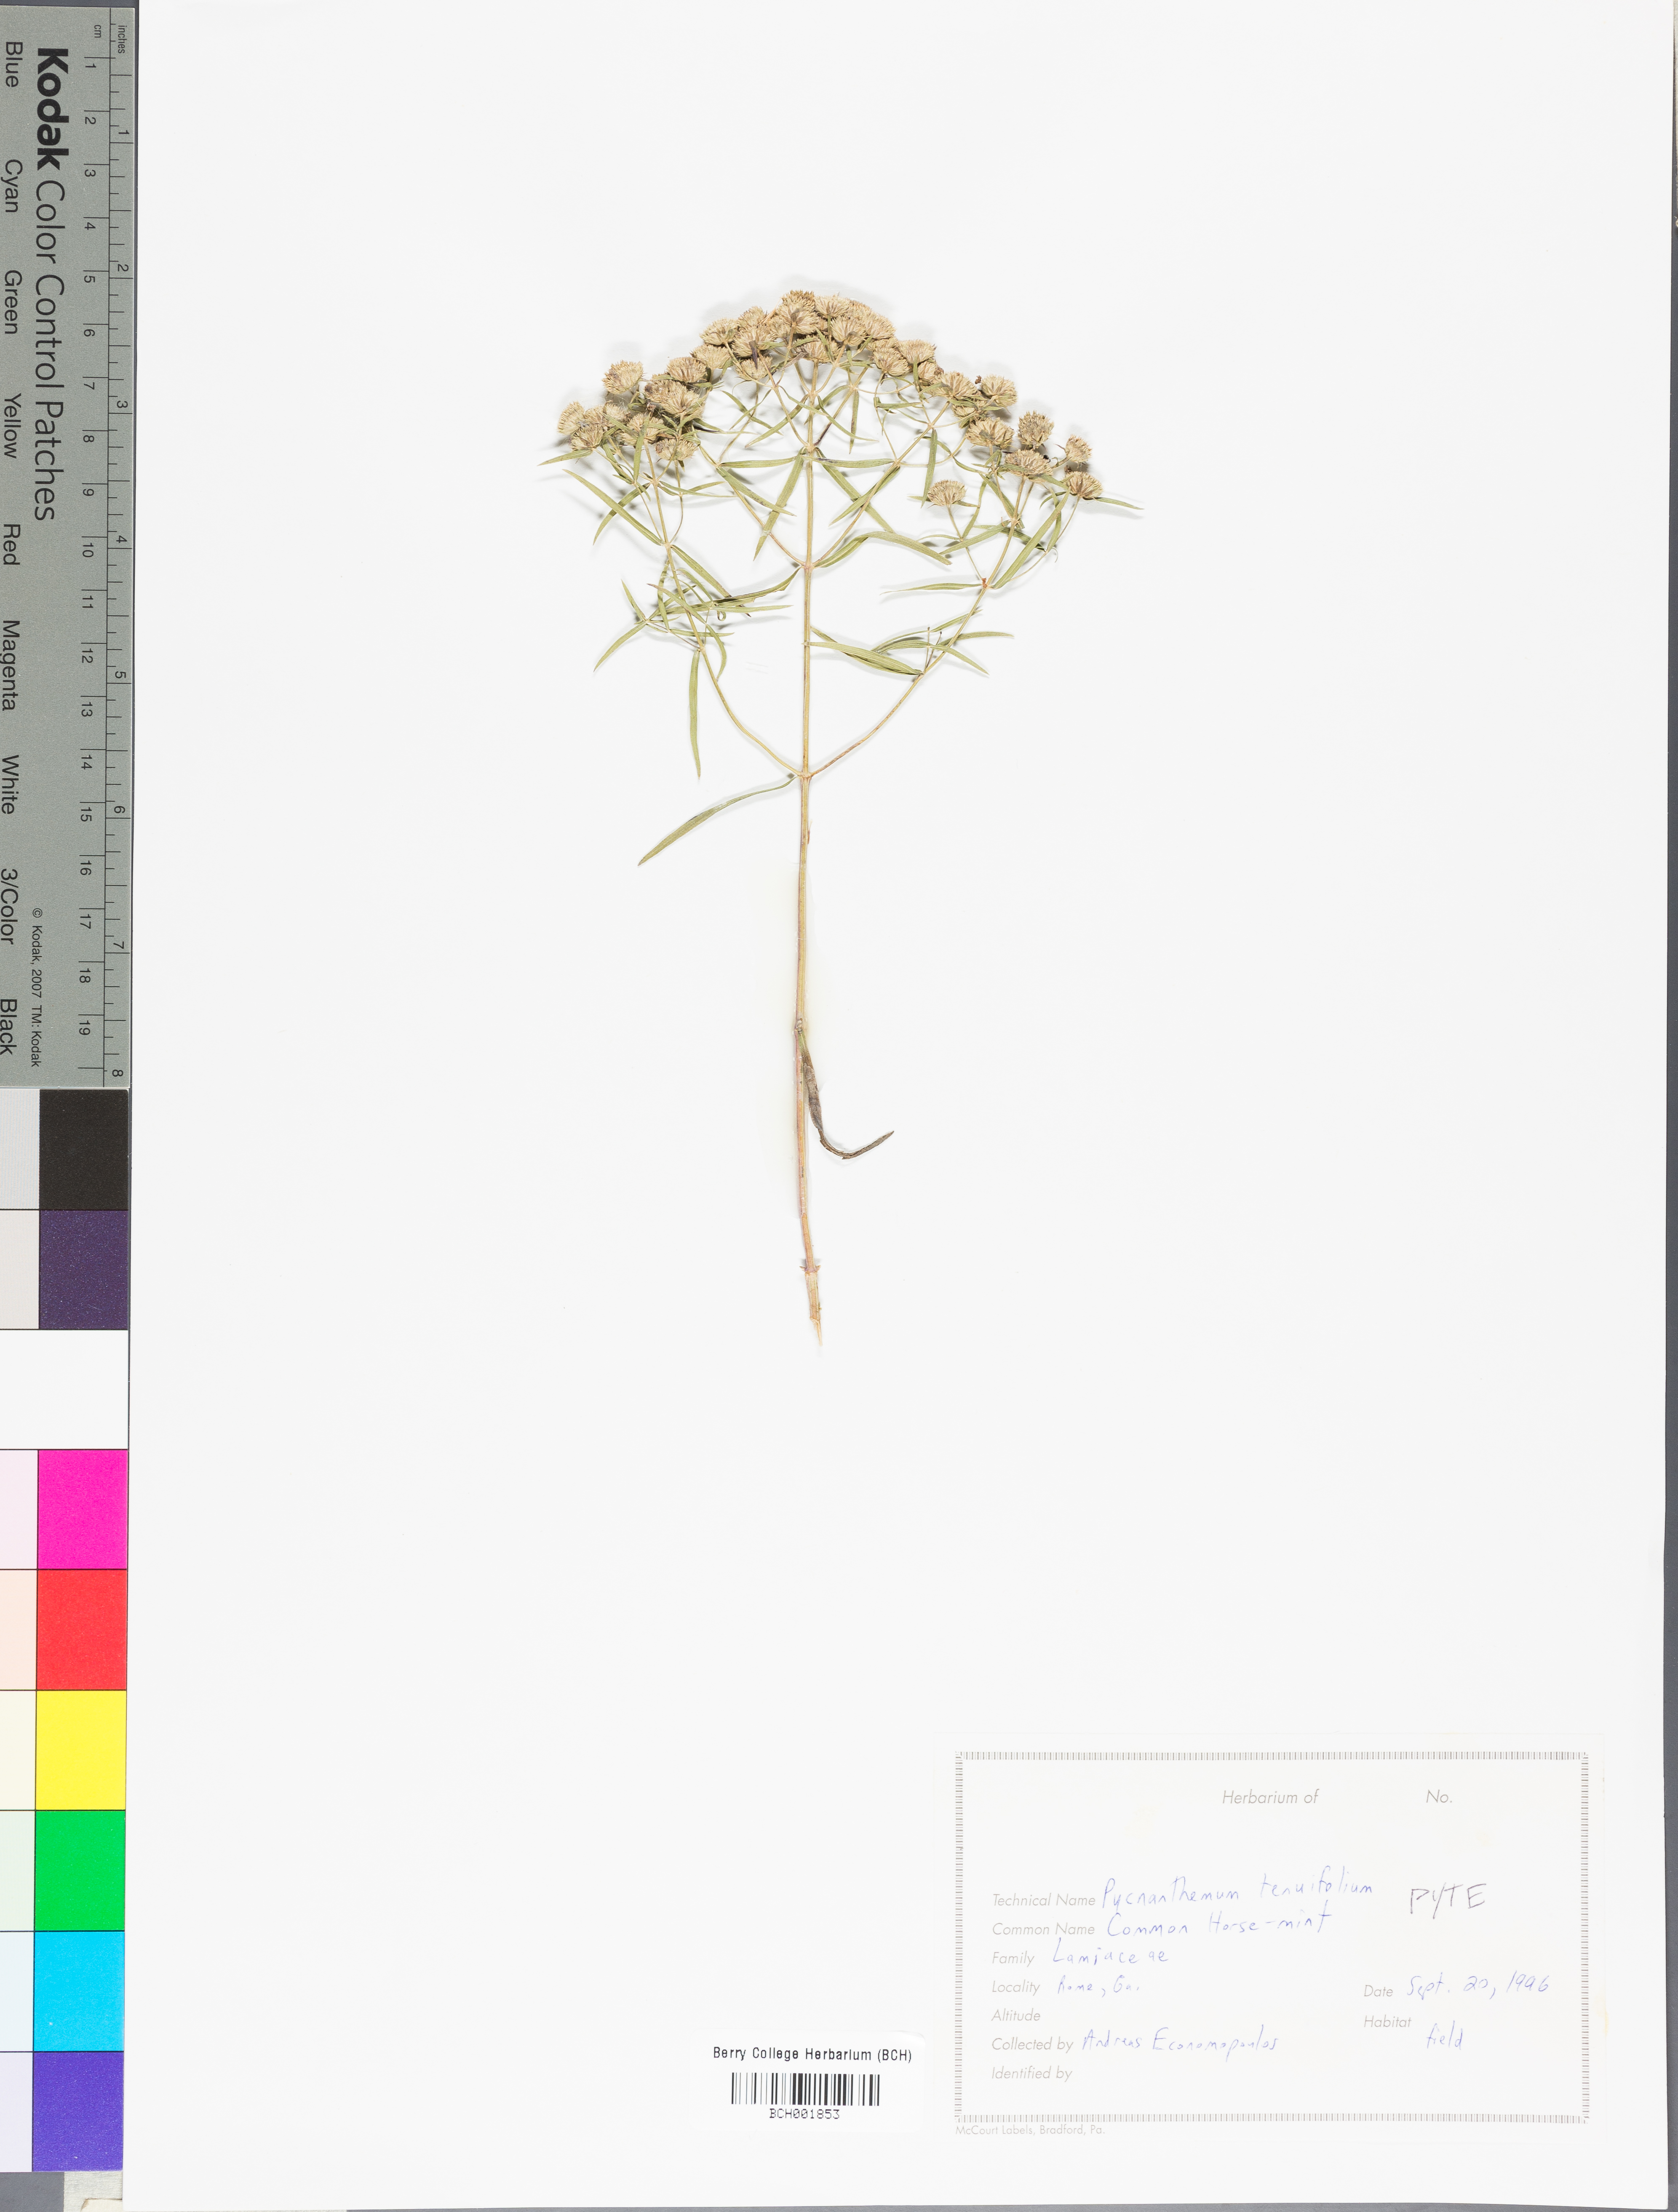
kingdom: Plantae
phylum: Tracheophyta
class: Magnoliopsida
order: Lamiales
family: Lamiaceae
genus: Pycnanthemum
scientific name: Pycnanthemum tenuifolium
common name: Narrow-leaf mountain-mint
